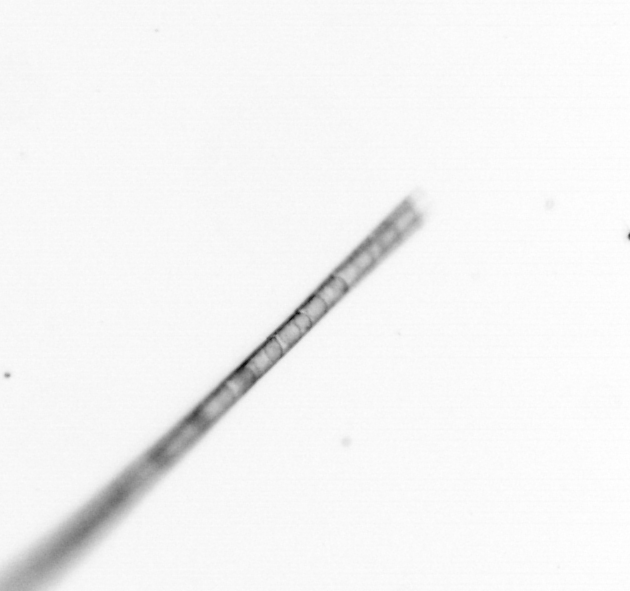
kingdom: Chromista
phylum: Ochrophyta
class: Bacillariophyceae
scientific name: Bacillariophyceae
